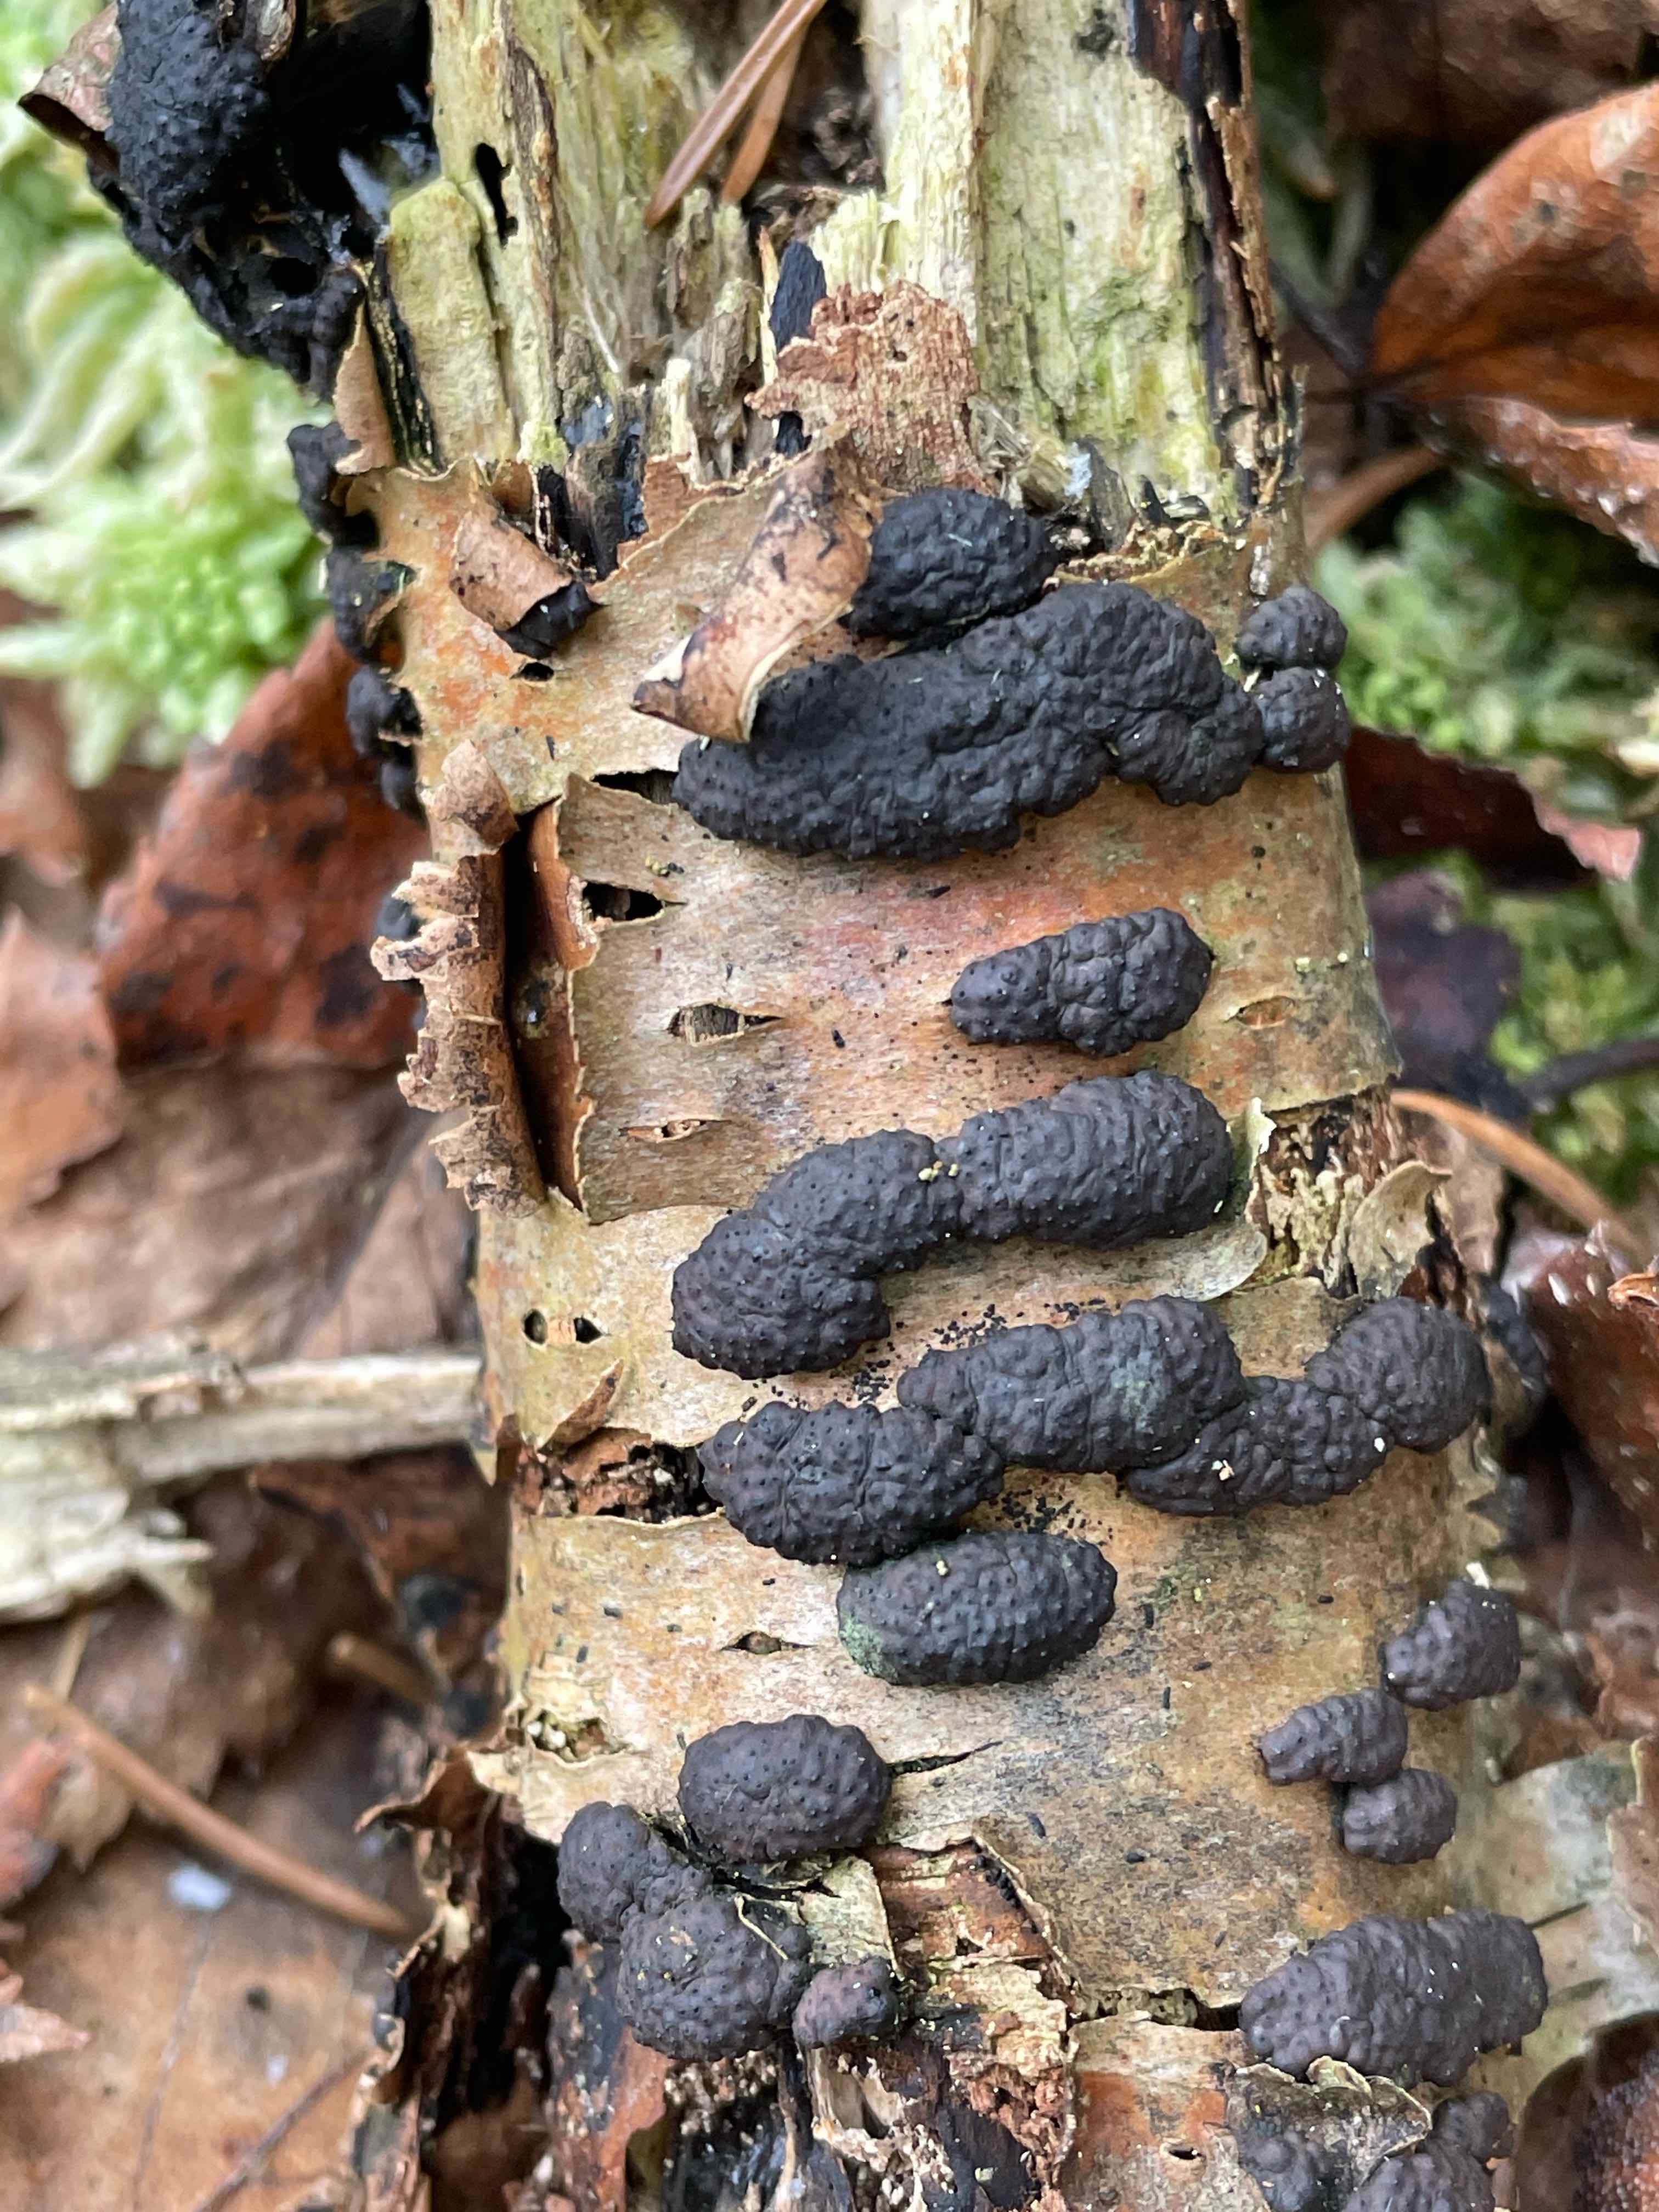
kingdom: Fungi
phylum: Ascomycota
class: Sordariomycetes
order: Xylariales
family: Hypoxylaceae
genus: Jackrogersella
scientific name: Jackrogersella multiformis
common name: foranderlig kulbær
